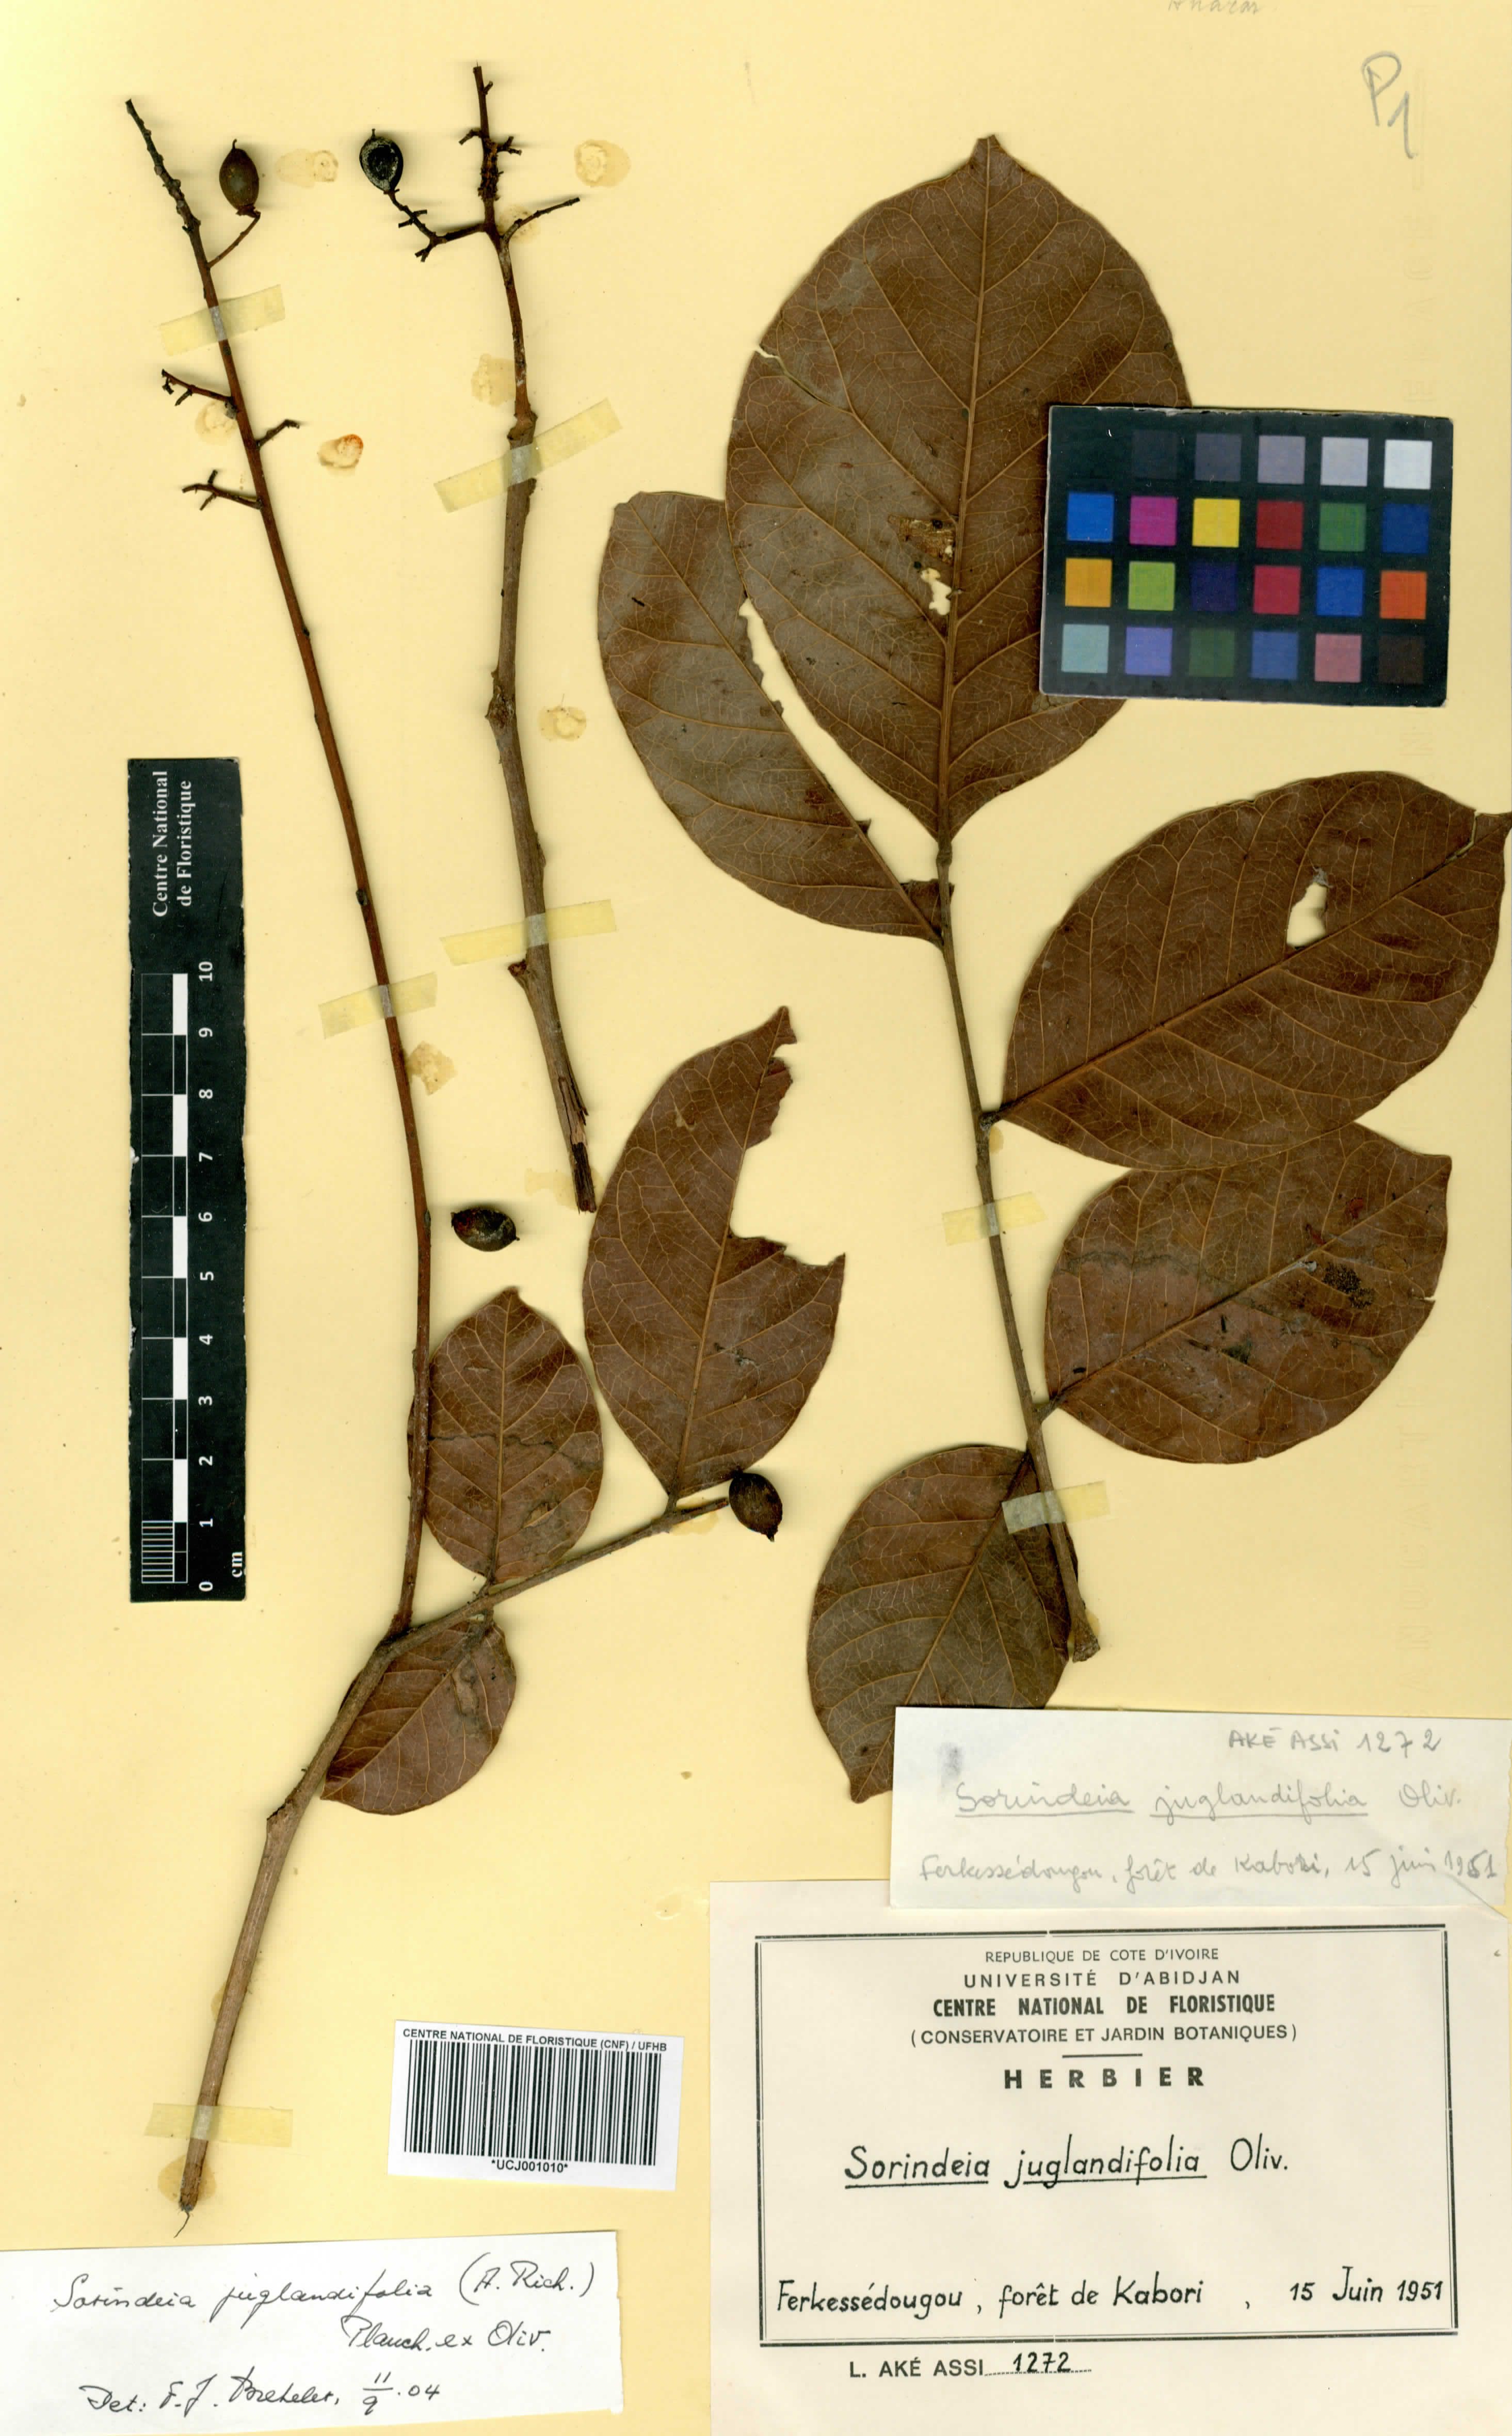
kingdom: Plantae
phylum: Tracheophyta
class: Magnoliopsida
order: Sapindales
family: Anacardiaceae
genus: Sorindeia
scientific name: Sorindeia juglandifolia
